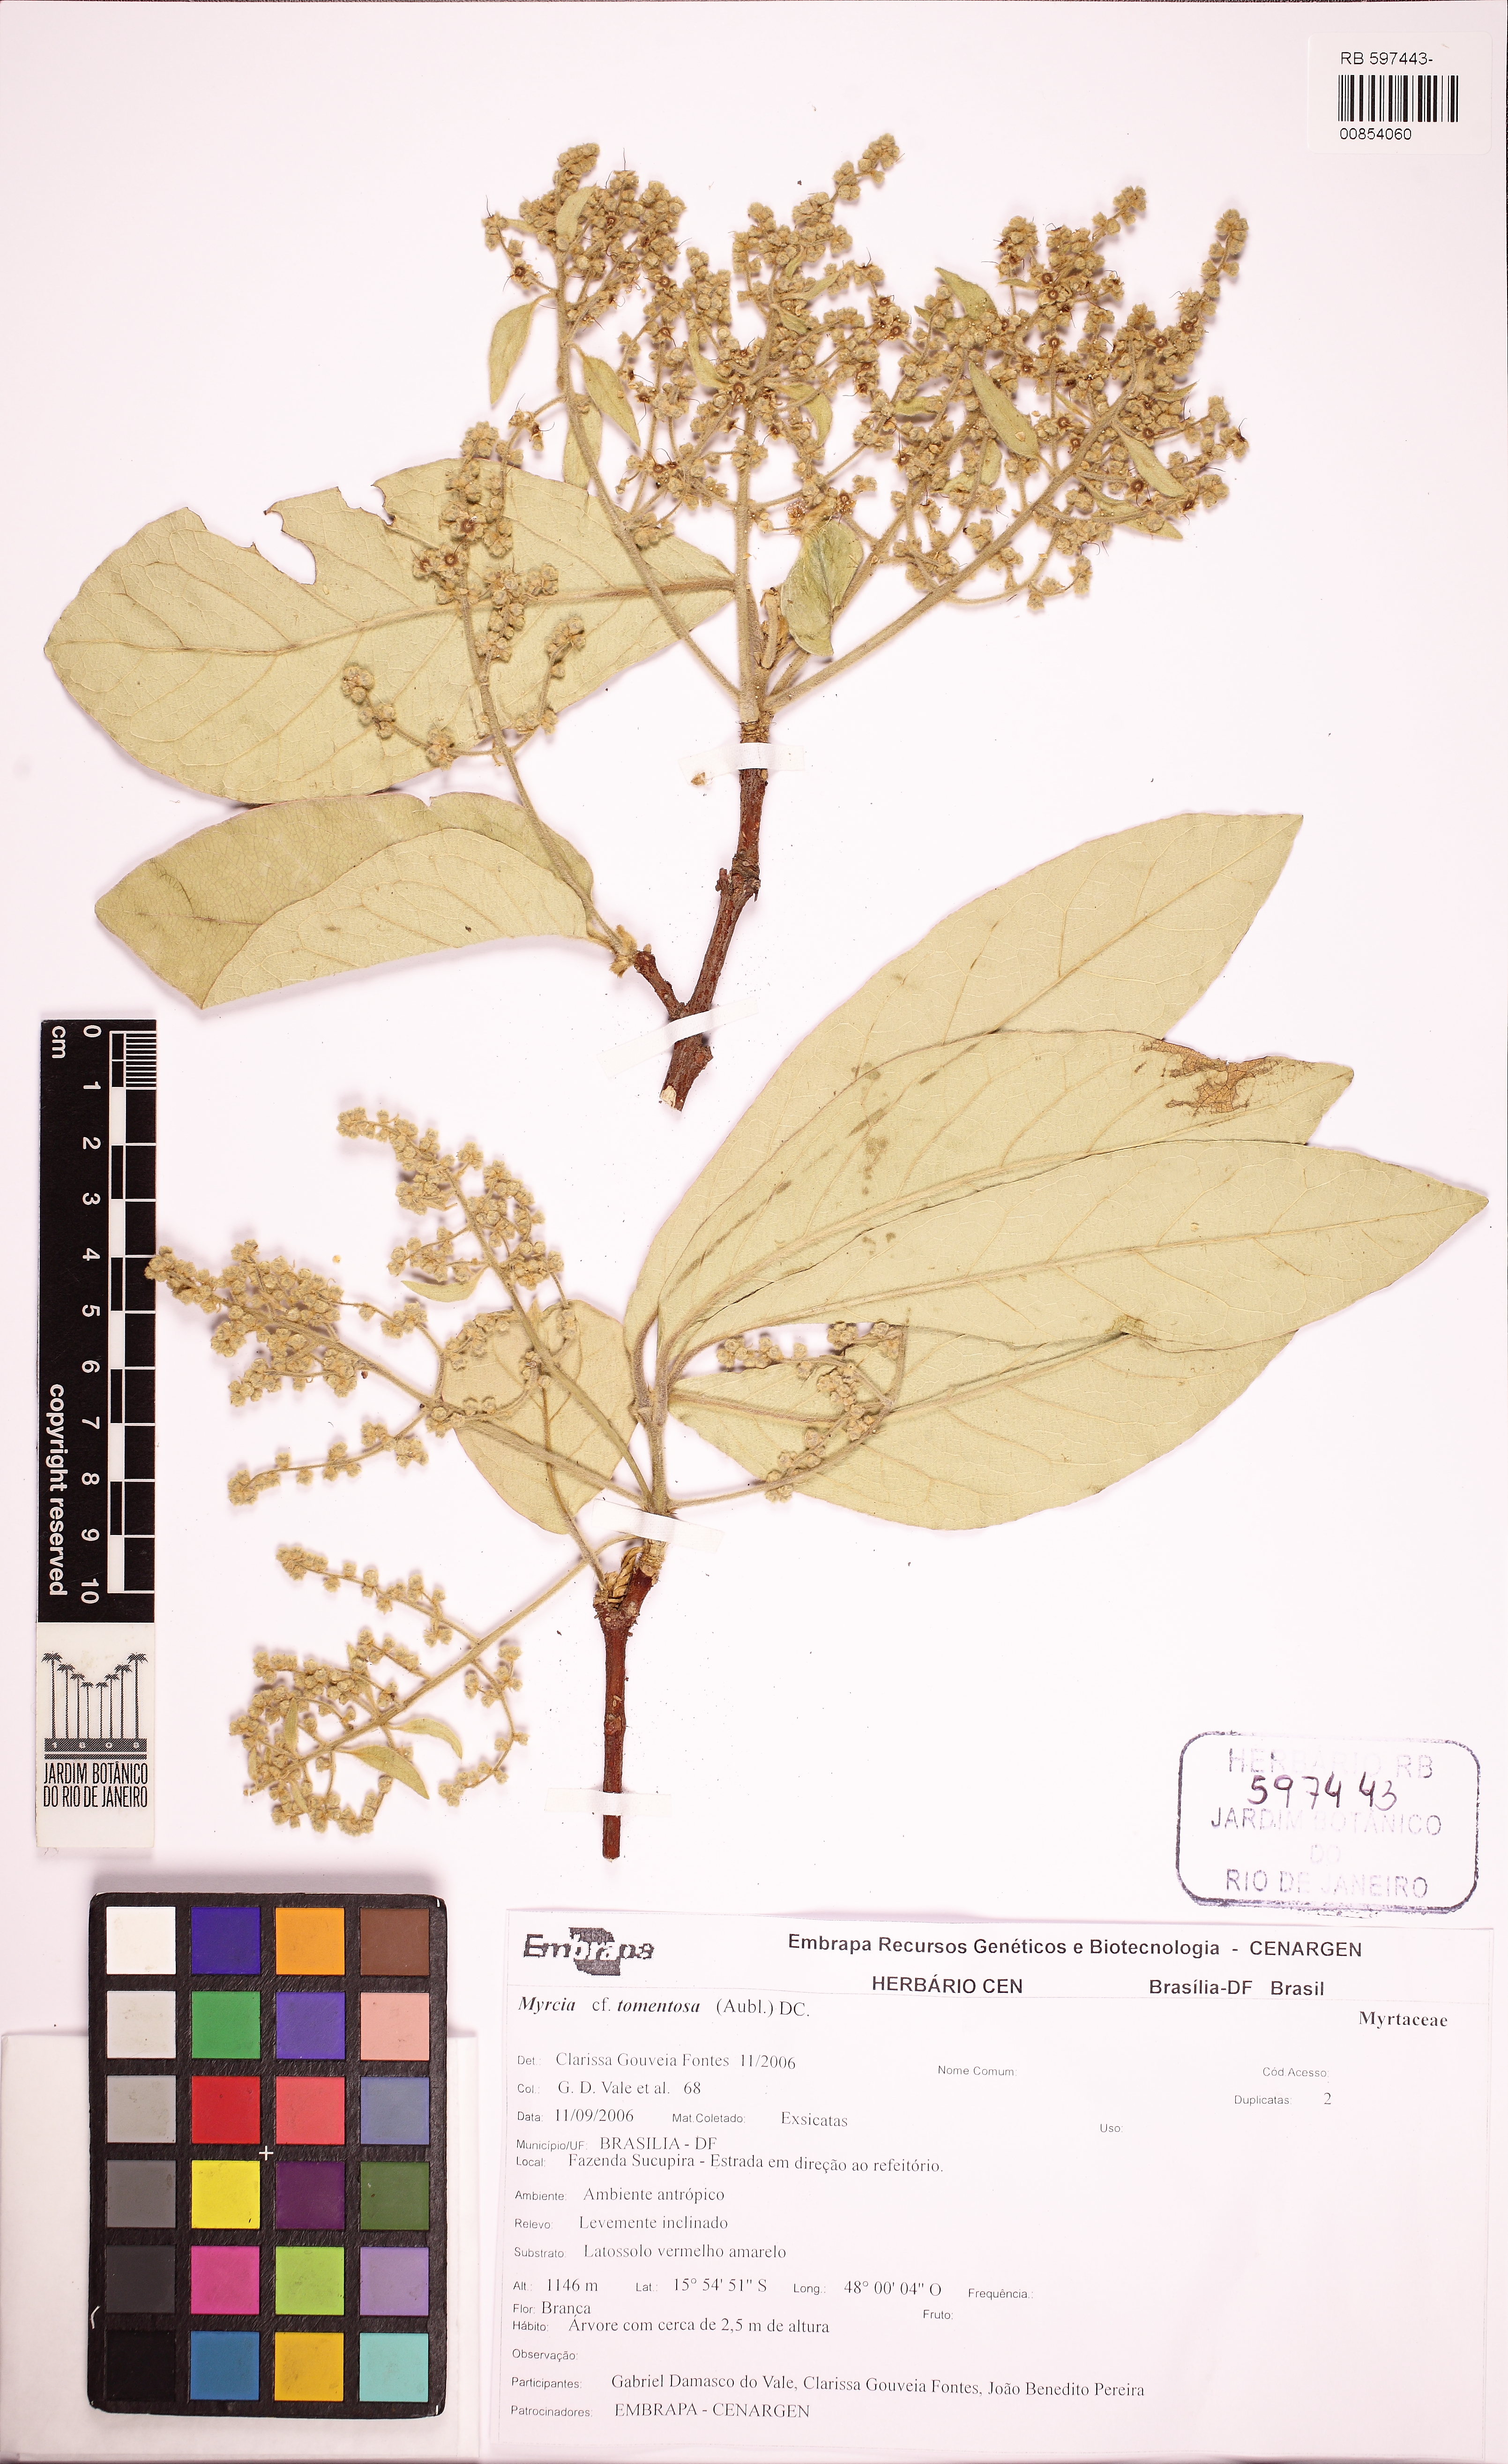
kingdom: Plantae
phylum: Tracheophyta
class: Magnoliopsida
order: Myrtales
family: Myrtaceae
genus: Myrcia
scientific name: Myrcia tomentosa
